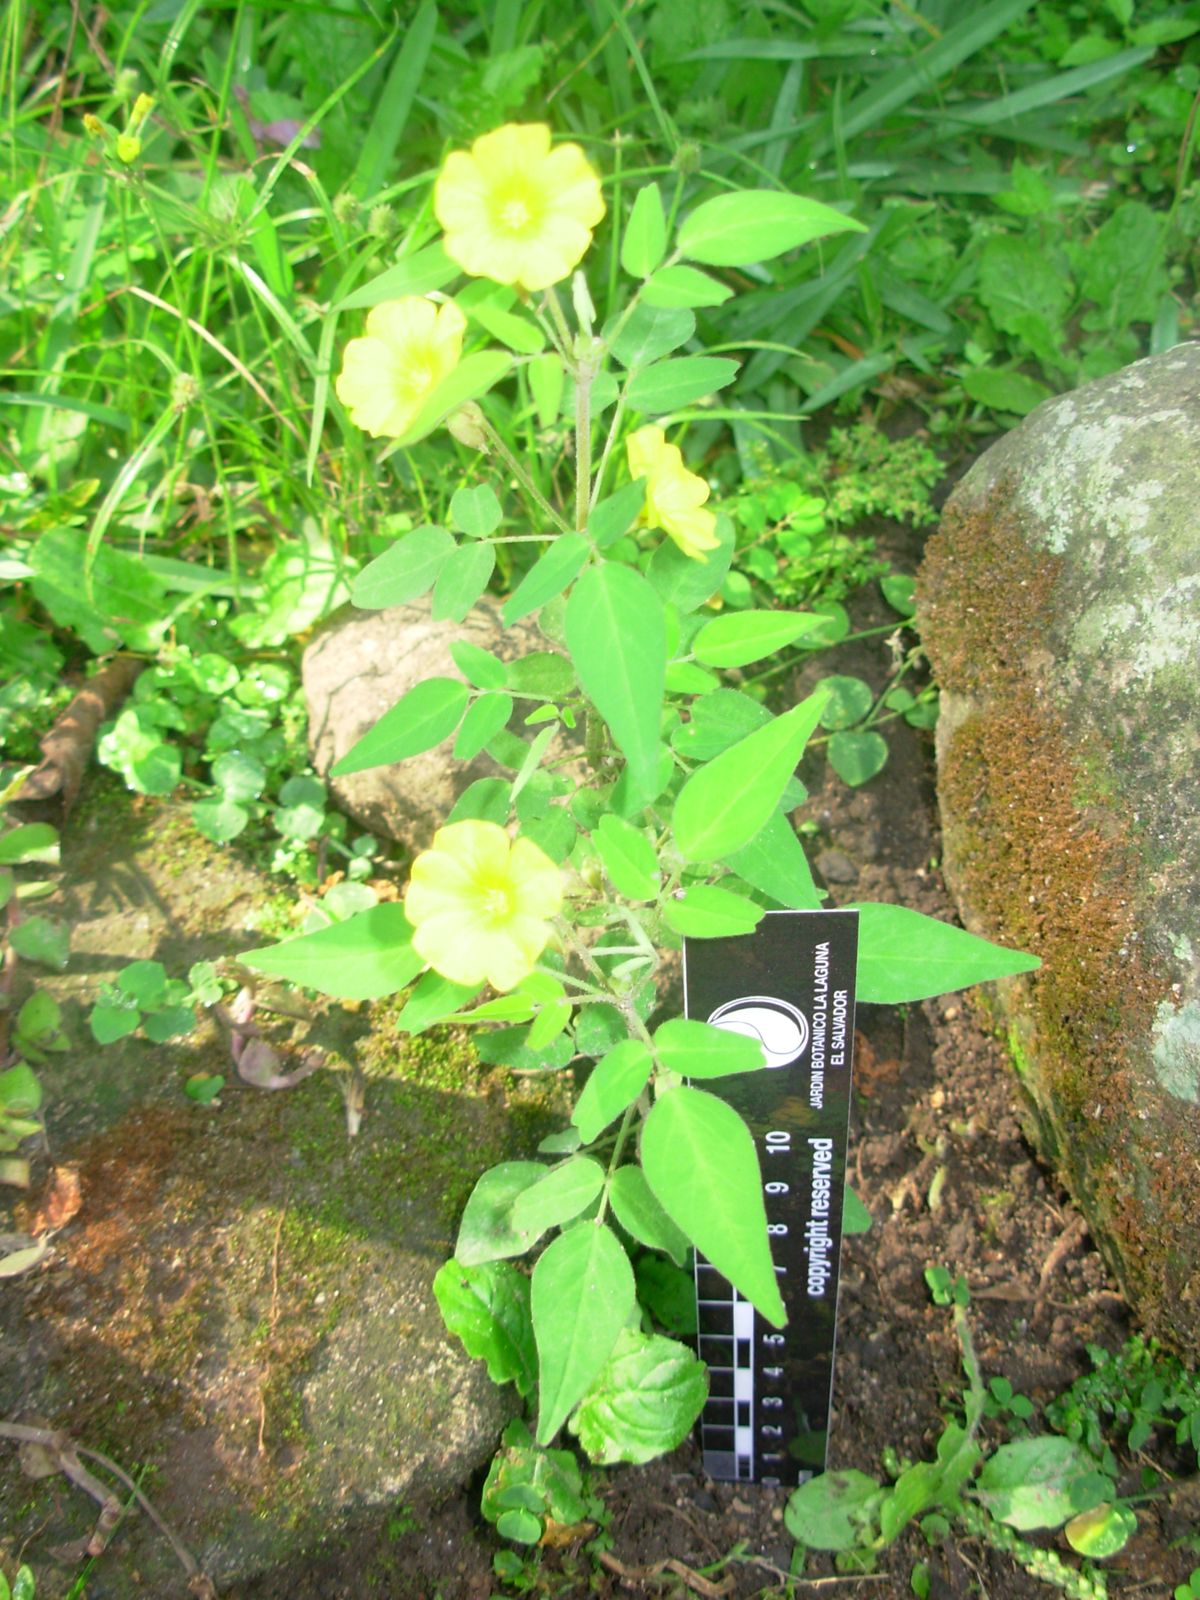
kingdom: Plantae
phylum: Tracheophyta
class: Magnoliopsida
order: Oxalidales
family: Oxalidaceae
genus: Oxalis
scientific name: Oxalis frutescens
